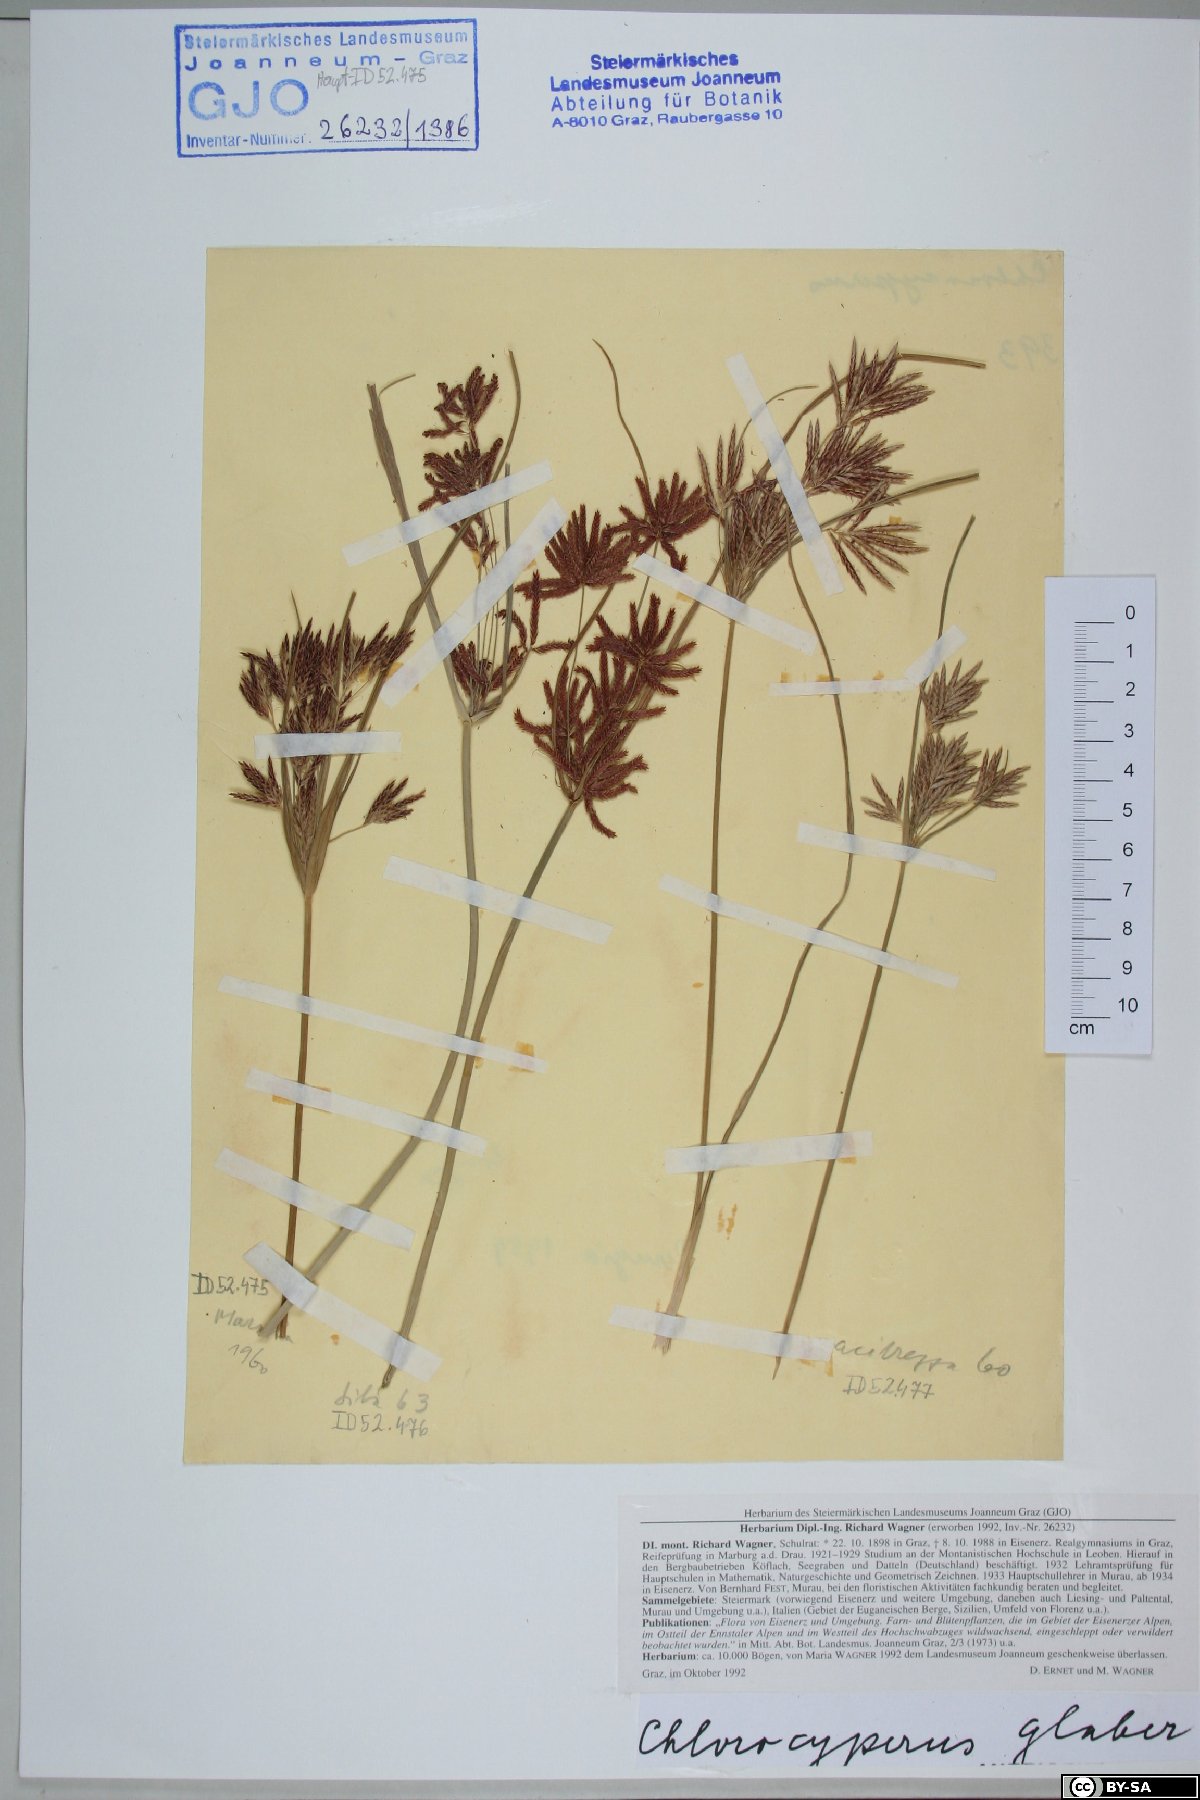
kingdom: Plantae
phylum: Tracheophyta
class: Liliopsida
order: Poales
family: Cyperaceae
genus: Cyperus
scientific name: Cyperus glaber
